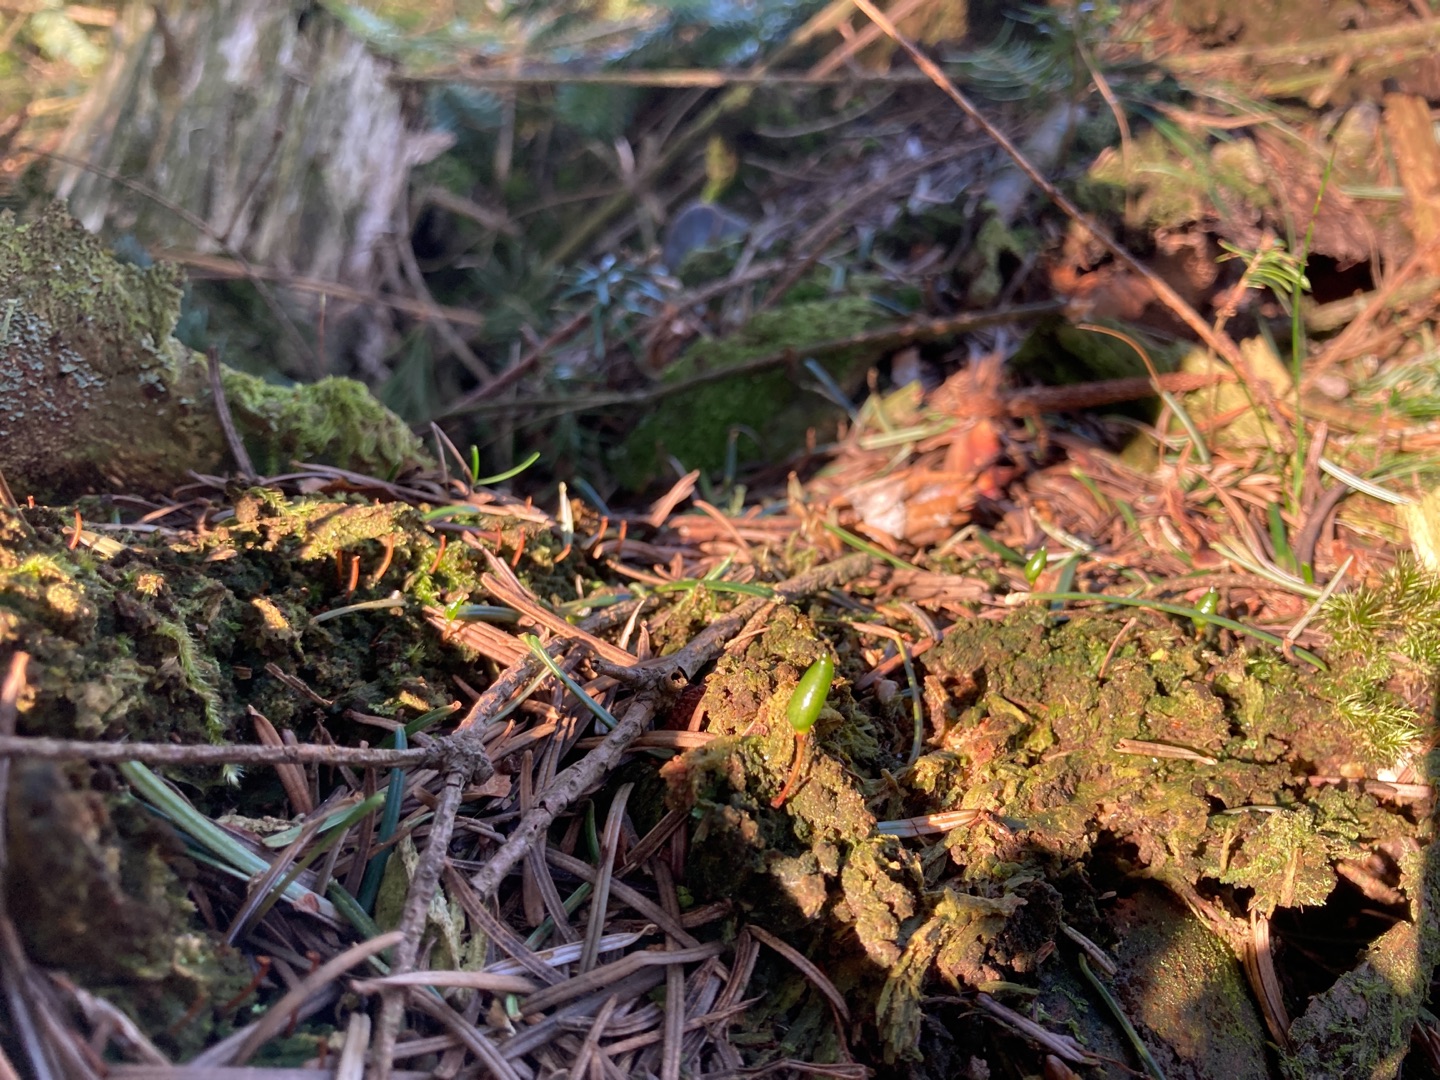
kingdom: Plantae
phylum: Bryophyta
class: Bryopsida
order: Buxbaumiales
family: Buxbaumiaceae
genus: Buxbaumia
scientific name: Buxbaumia viridis
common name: Grøn buxbaumia
